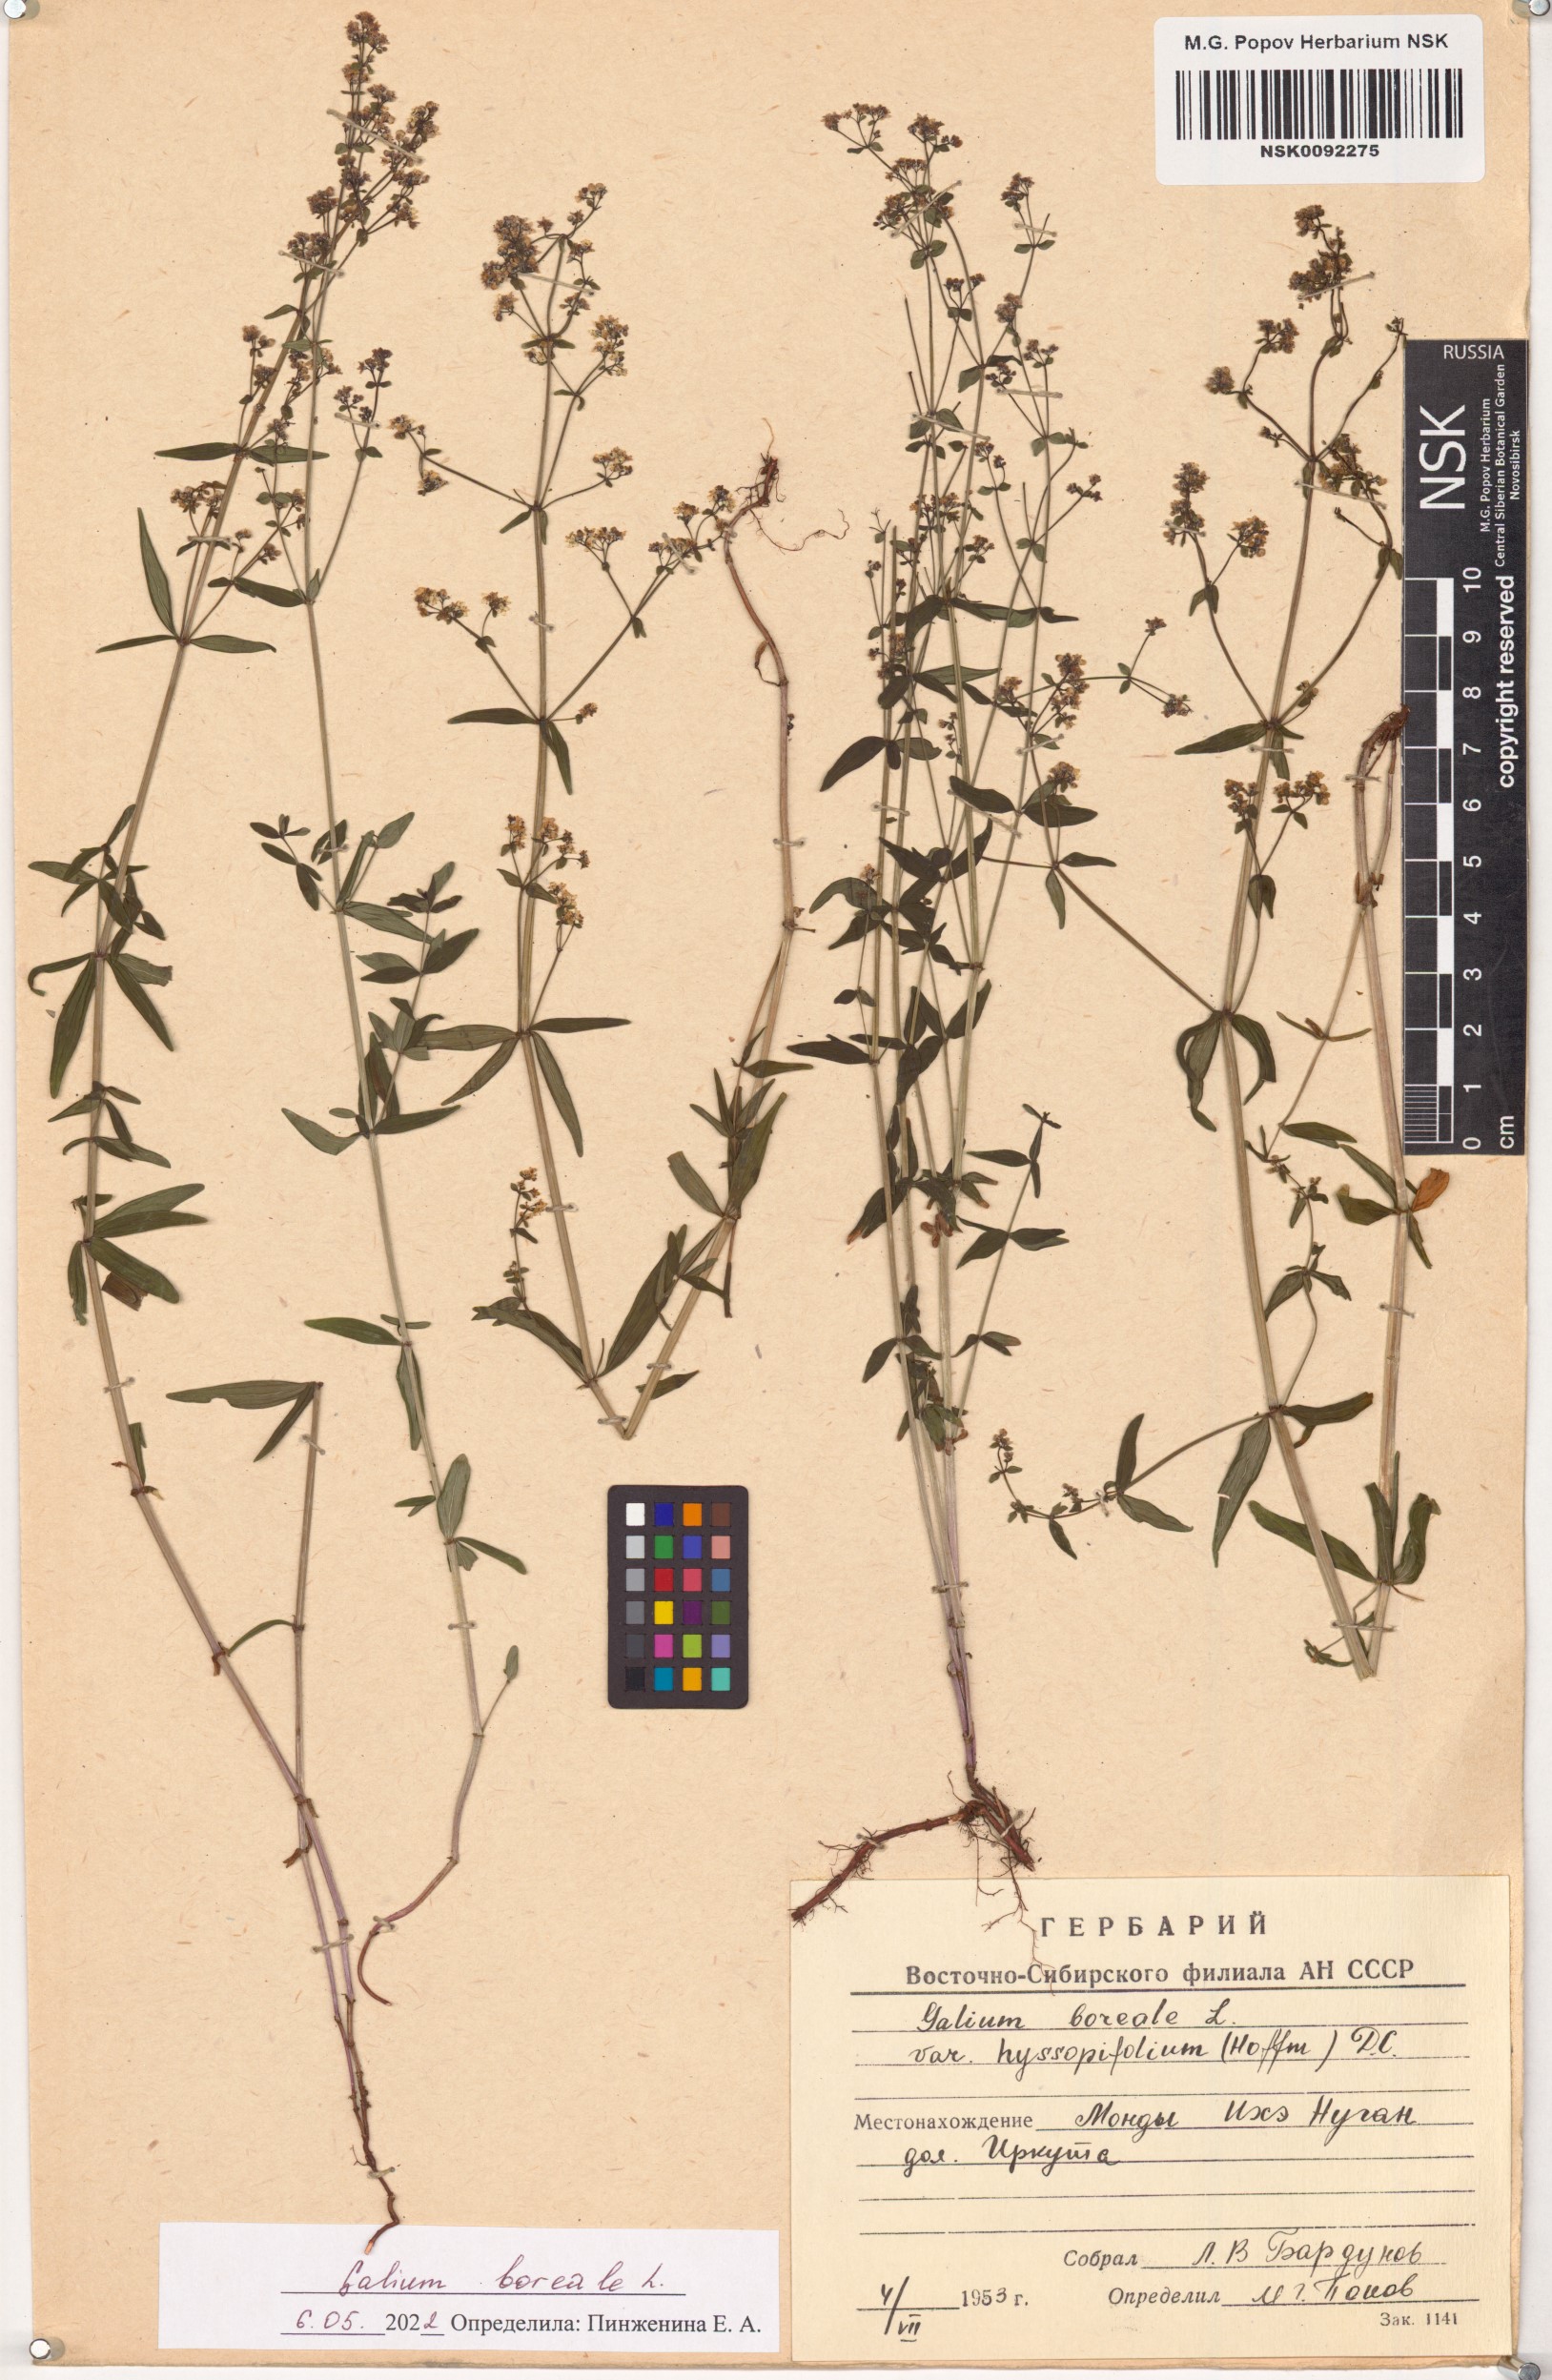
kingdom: Plantae
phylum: Tracheophyta
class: Magnoliopsida
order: Gentianales
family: Rubiaceae
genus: Galium
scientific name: Galium boreale
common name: Northern bedstraw
